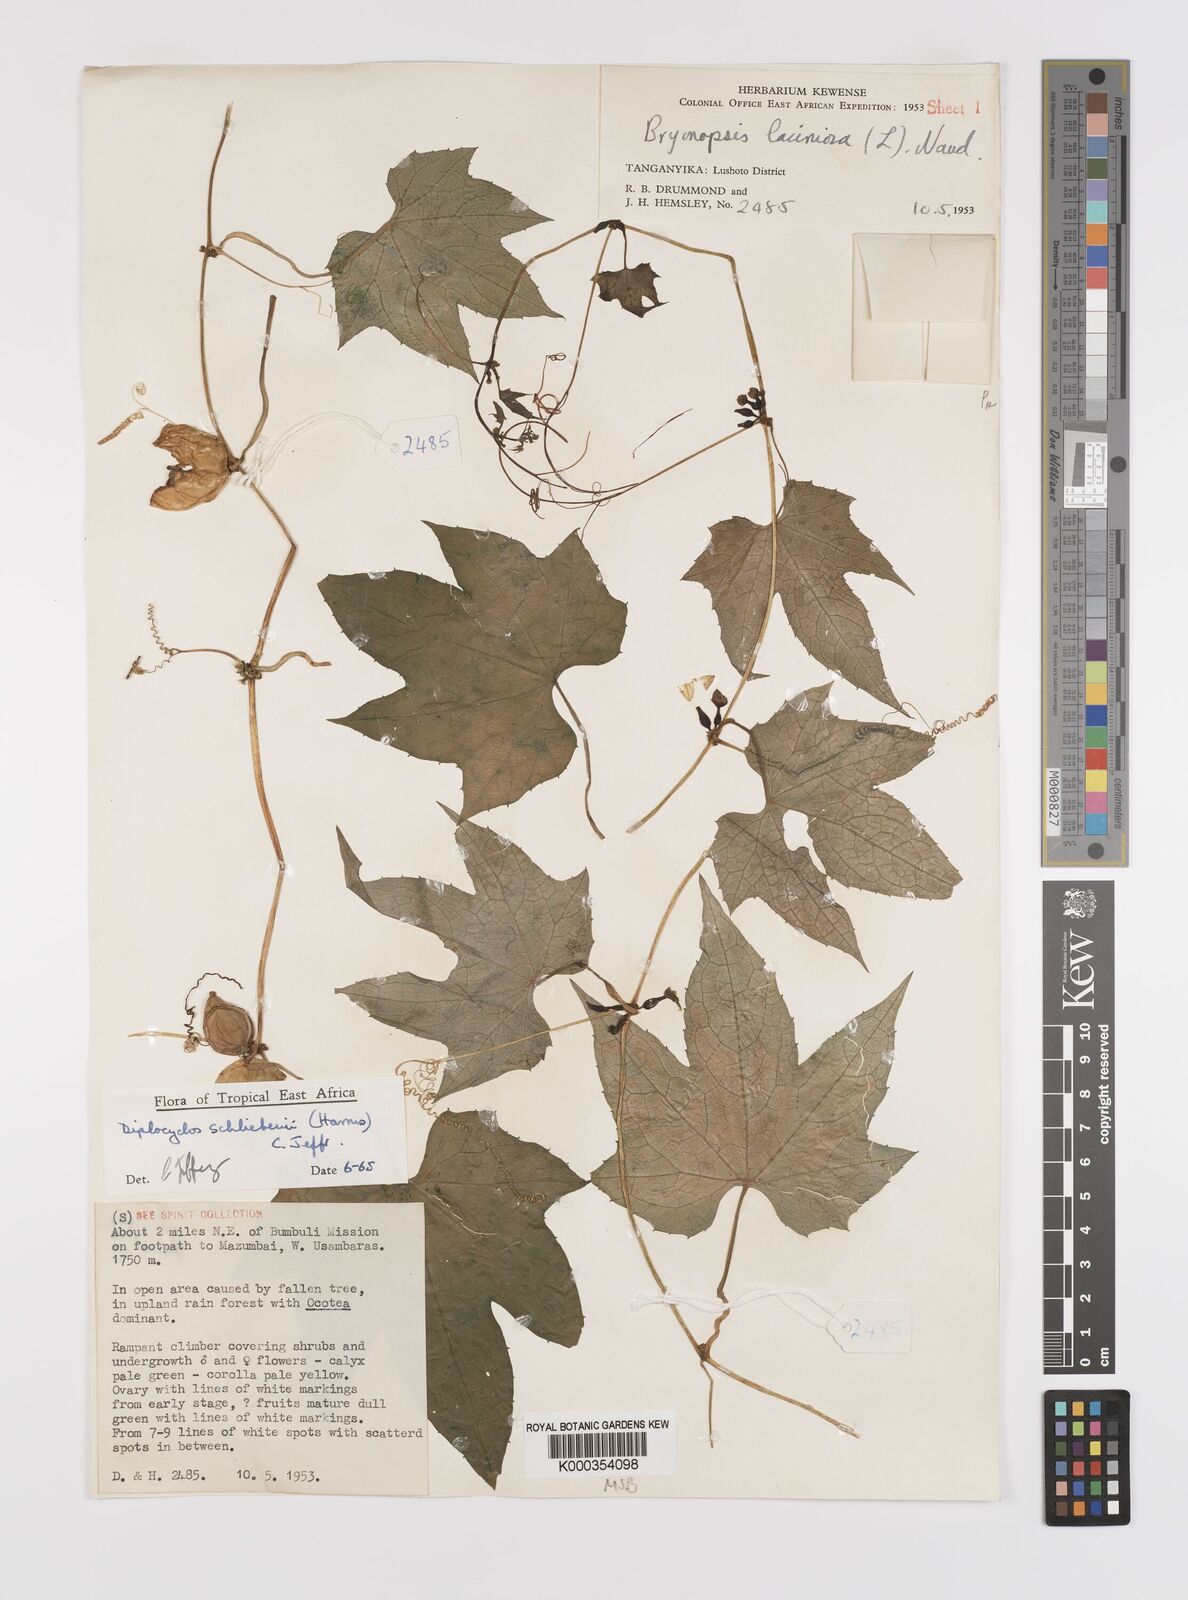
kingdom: Plantae
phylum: Tracheophyta
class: Magnoliopsida
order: Cucurbitales
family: Cucurbitaceae
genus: Diplocyclos
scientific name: Diplocyclos schliebenii
